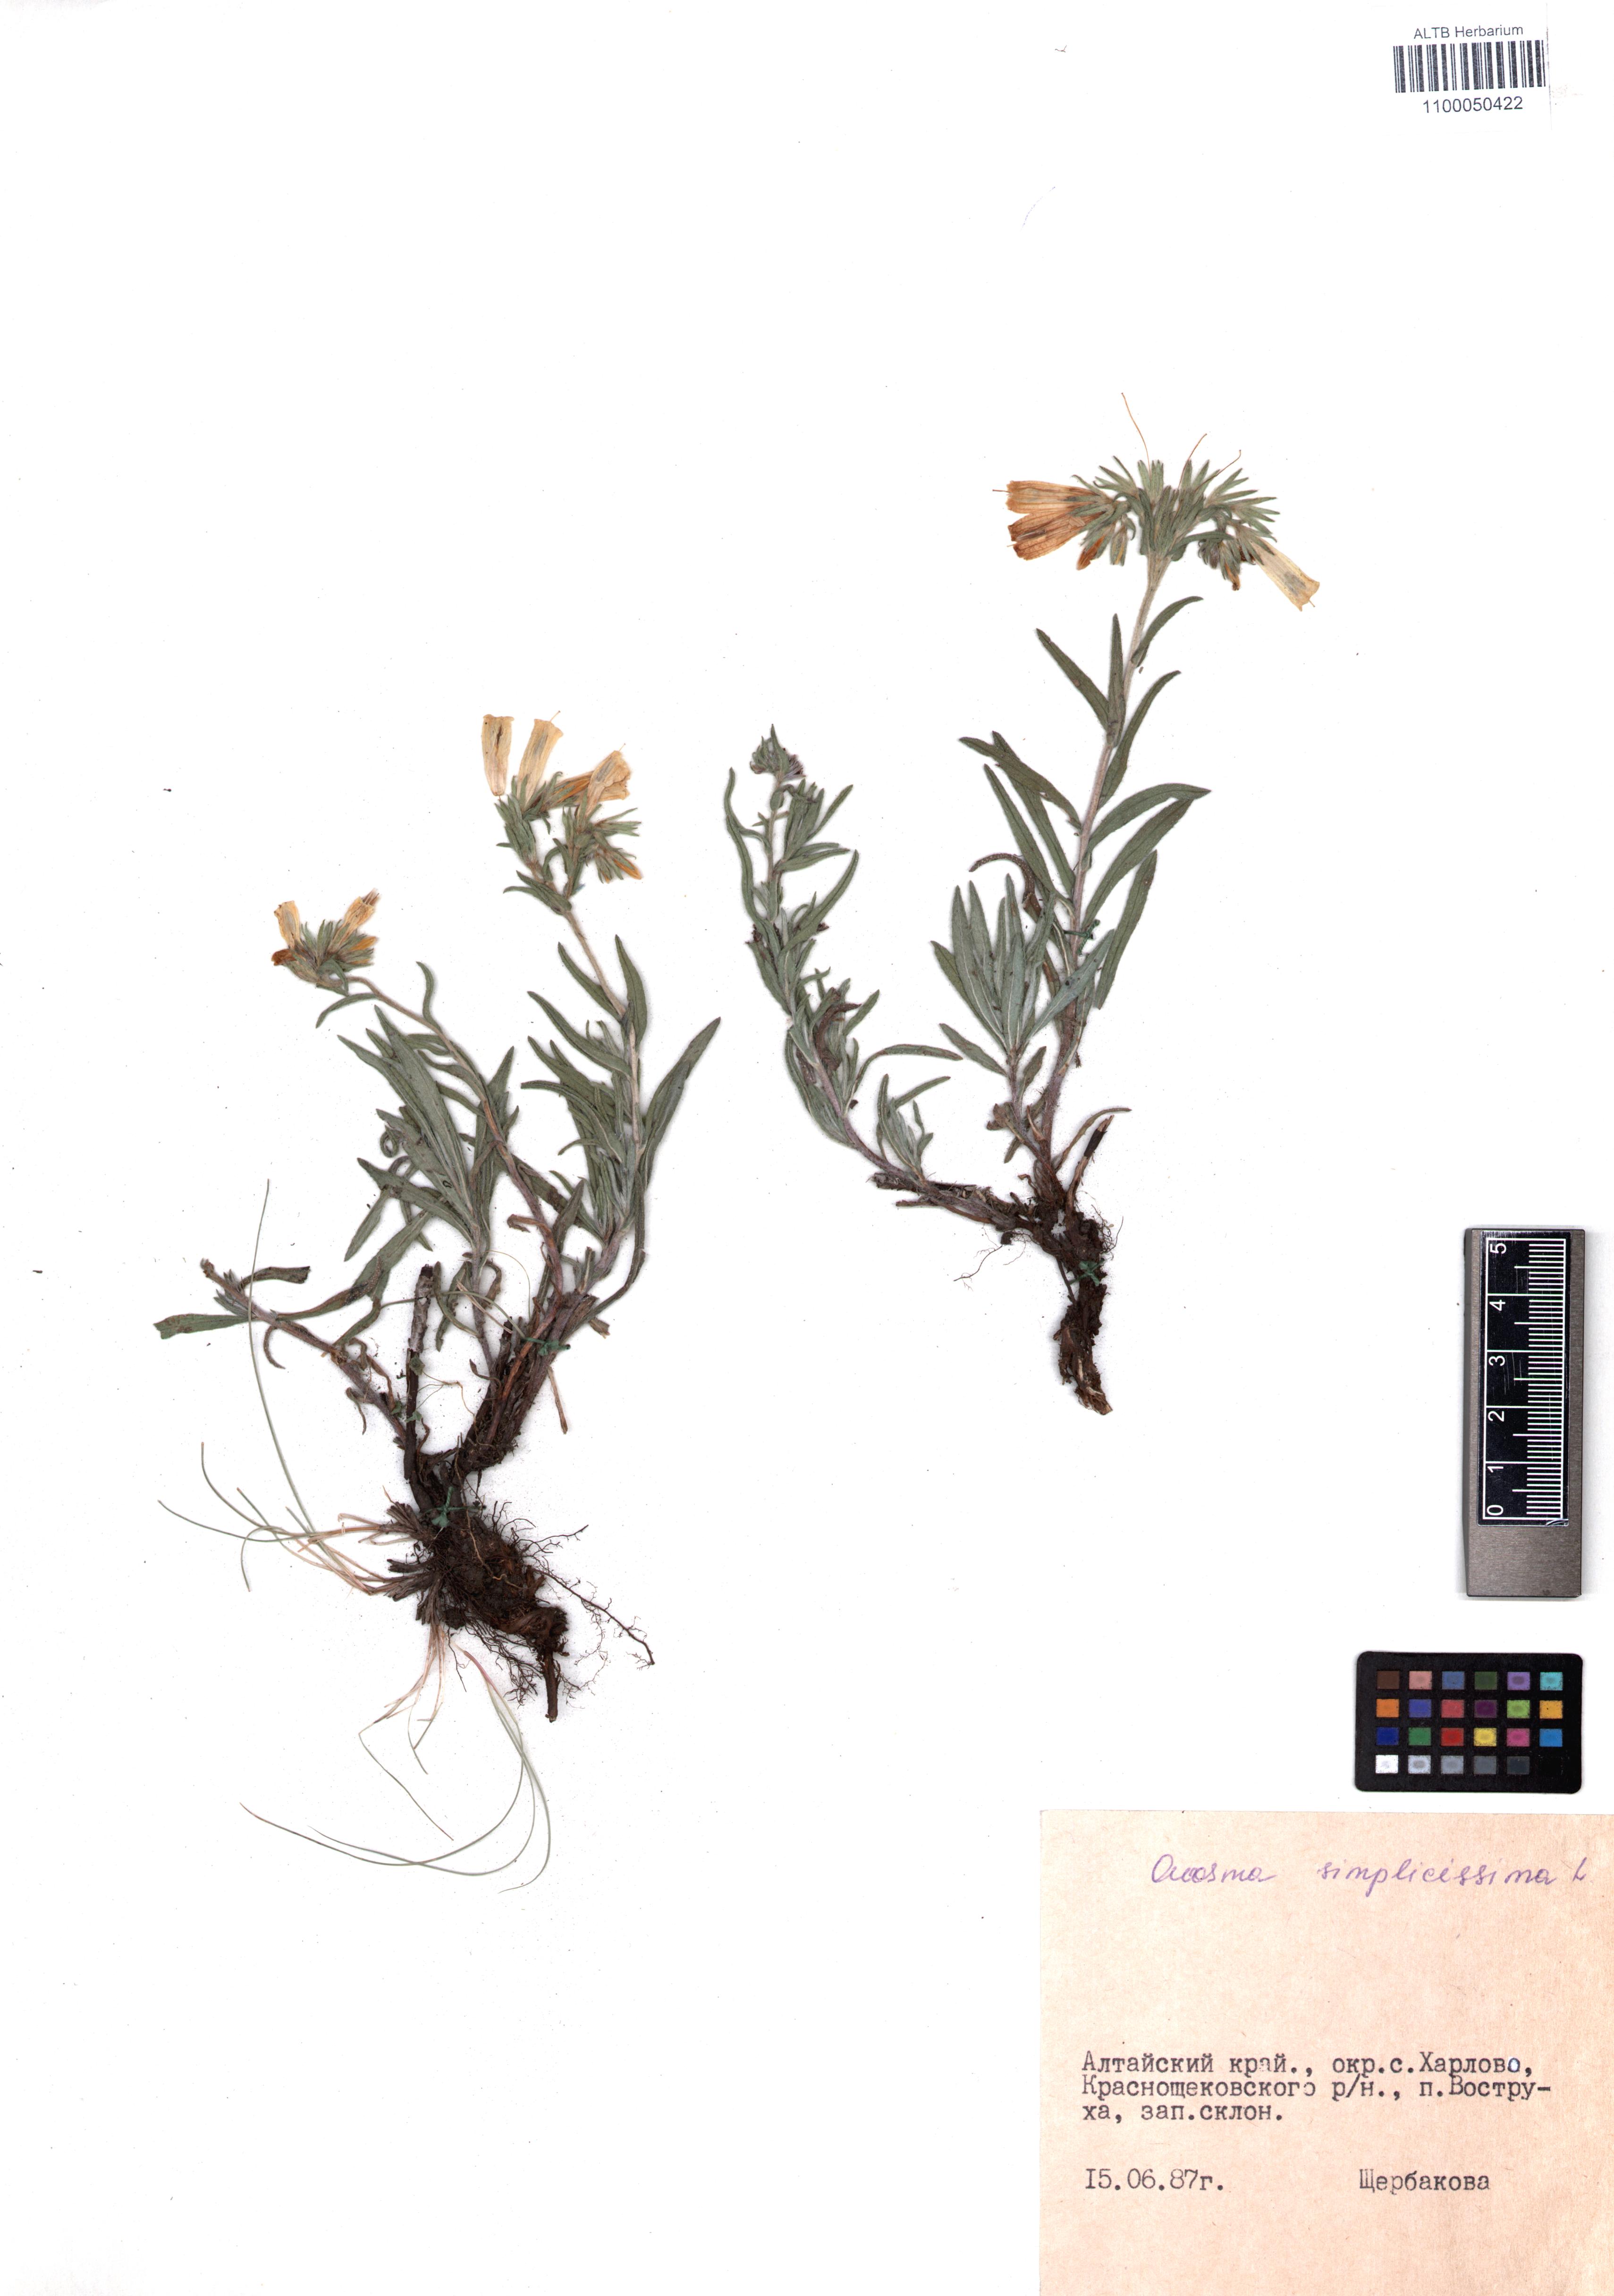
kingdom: Plantae
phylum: Tracheophyta
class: Magnoliopsida
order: Boraginales
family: Boraginaceae
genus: Onosma
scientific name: Onosma simplicissima
